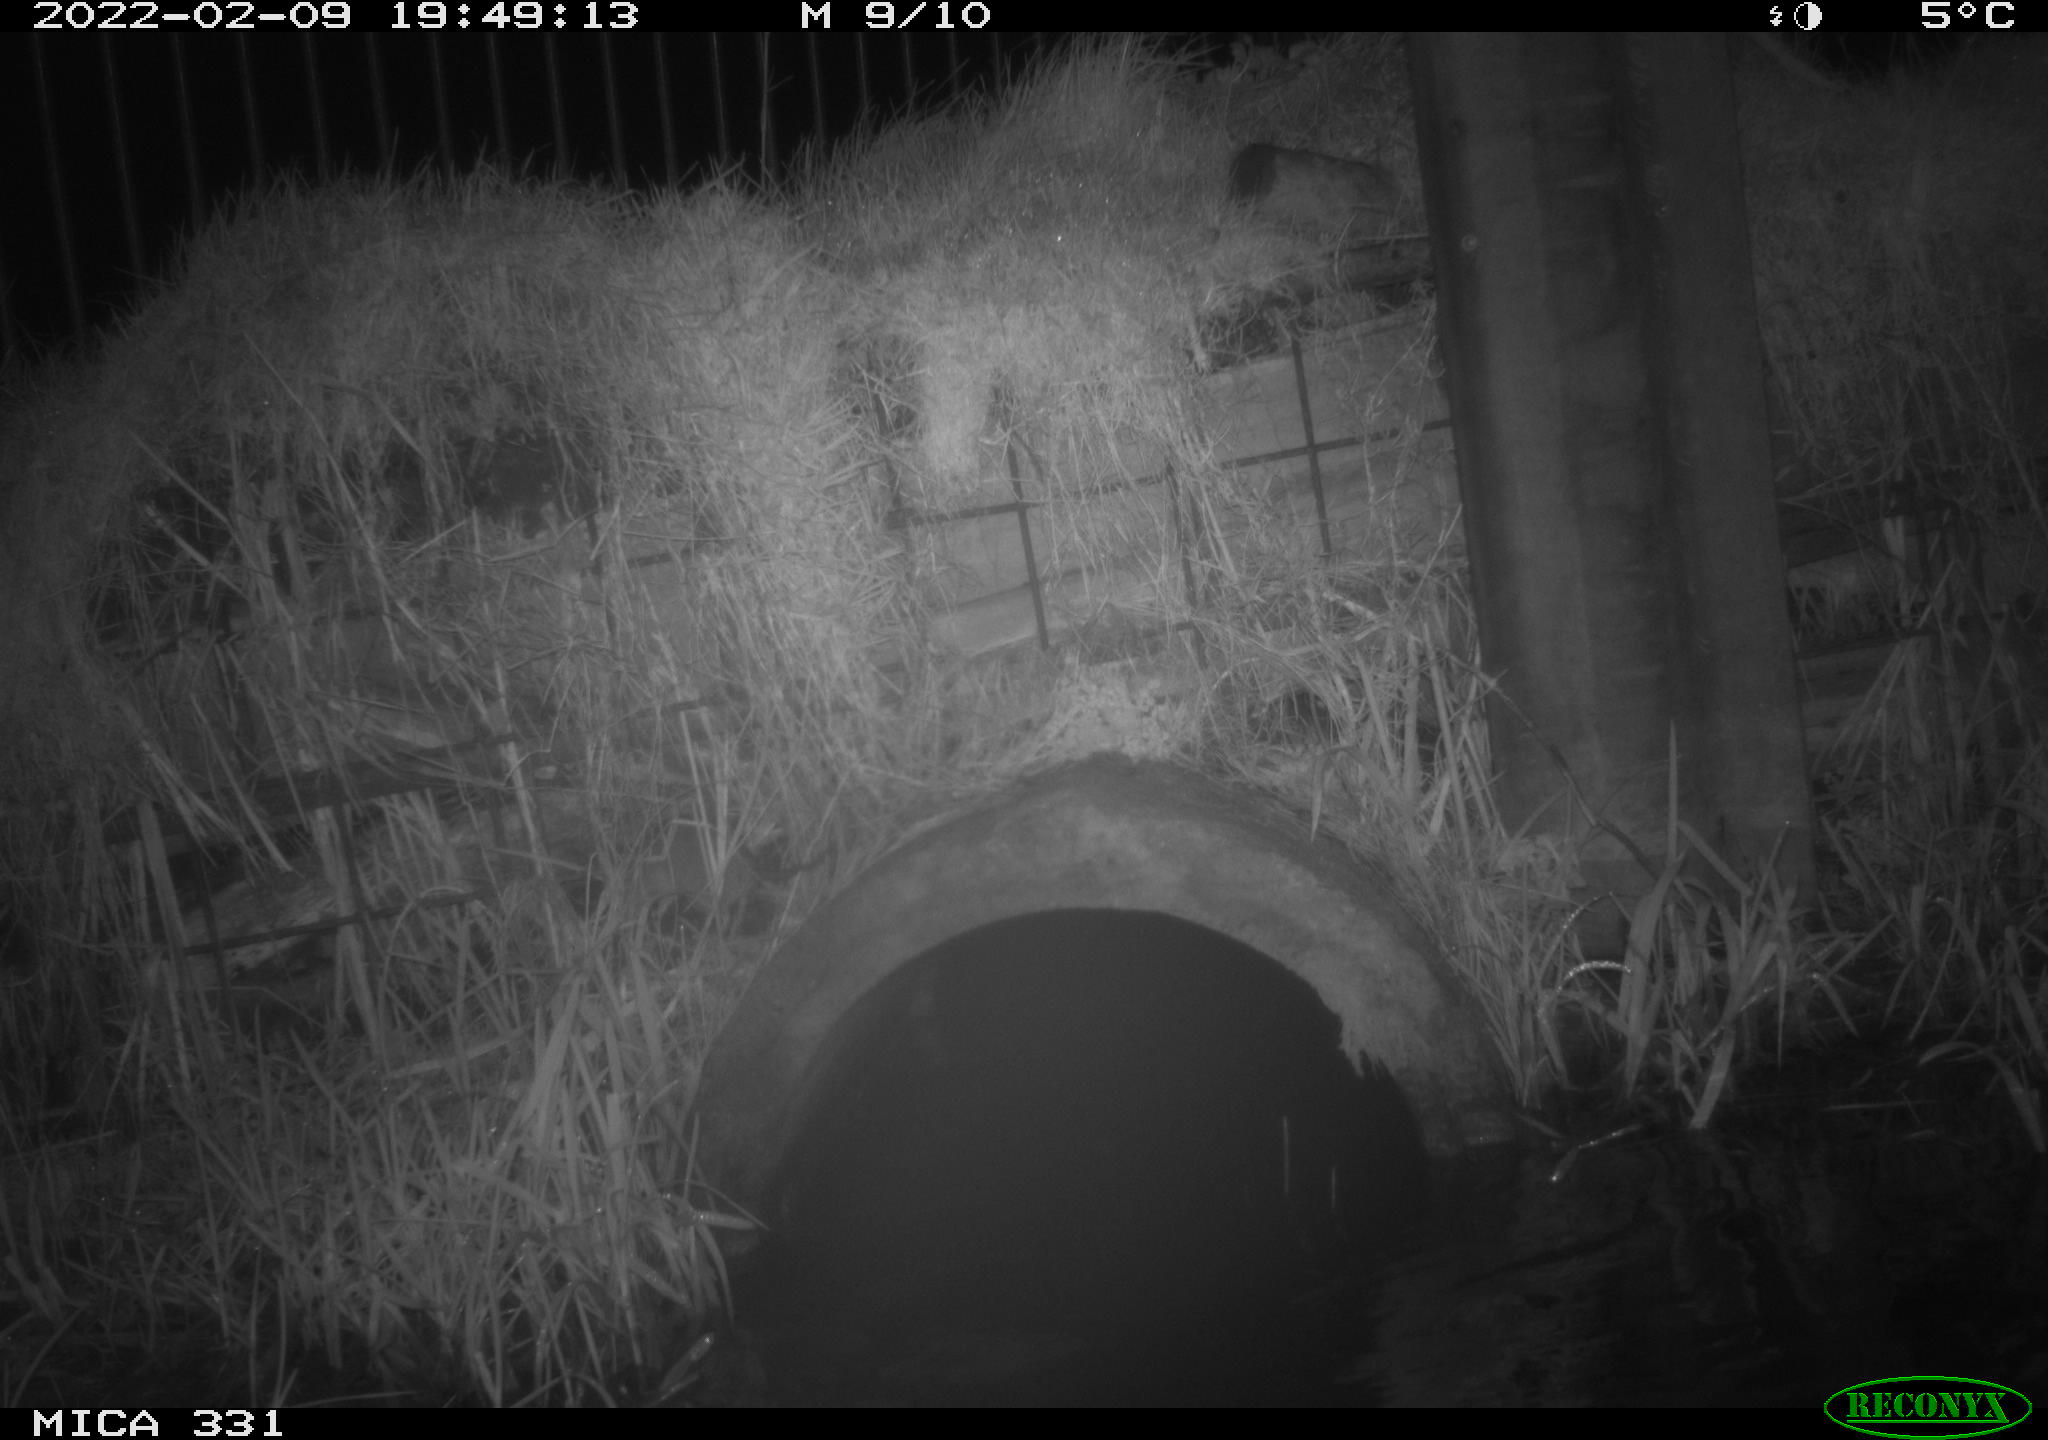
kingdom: Animalia
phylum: Chordata
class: Mammalia
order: Rodentia
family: Muridae
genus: Rattus
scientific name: Rattus norvegicus
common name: Brown rat
